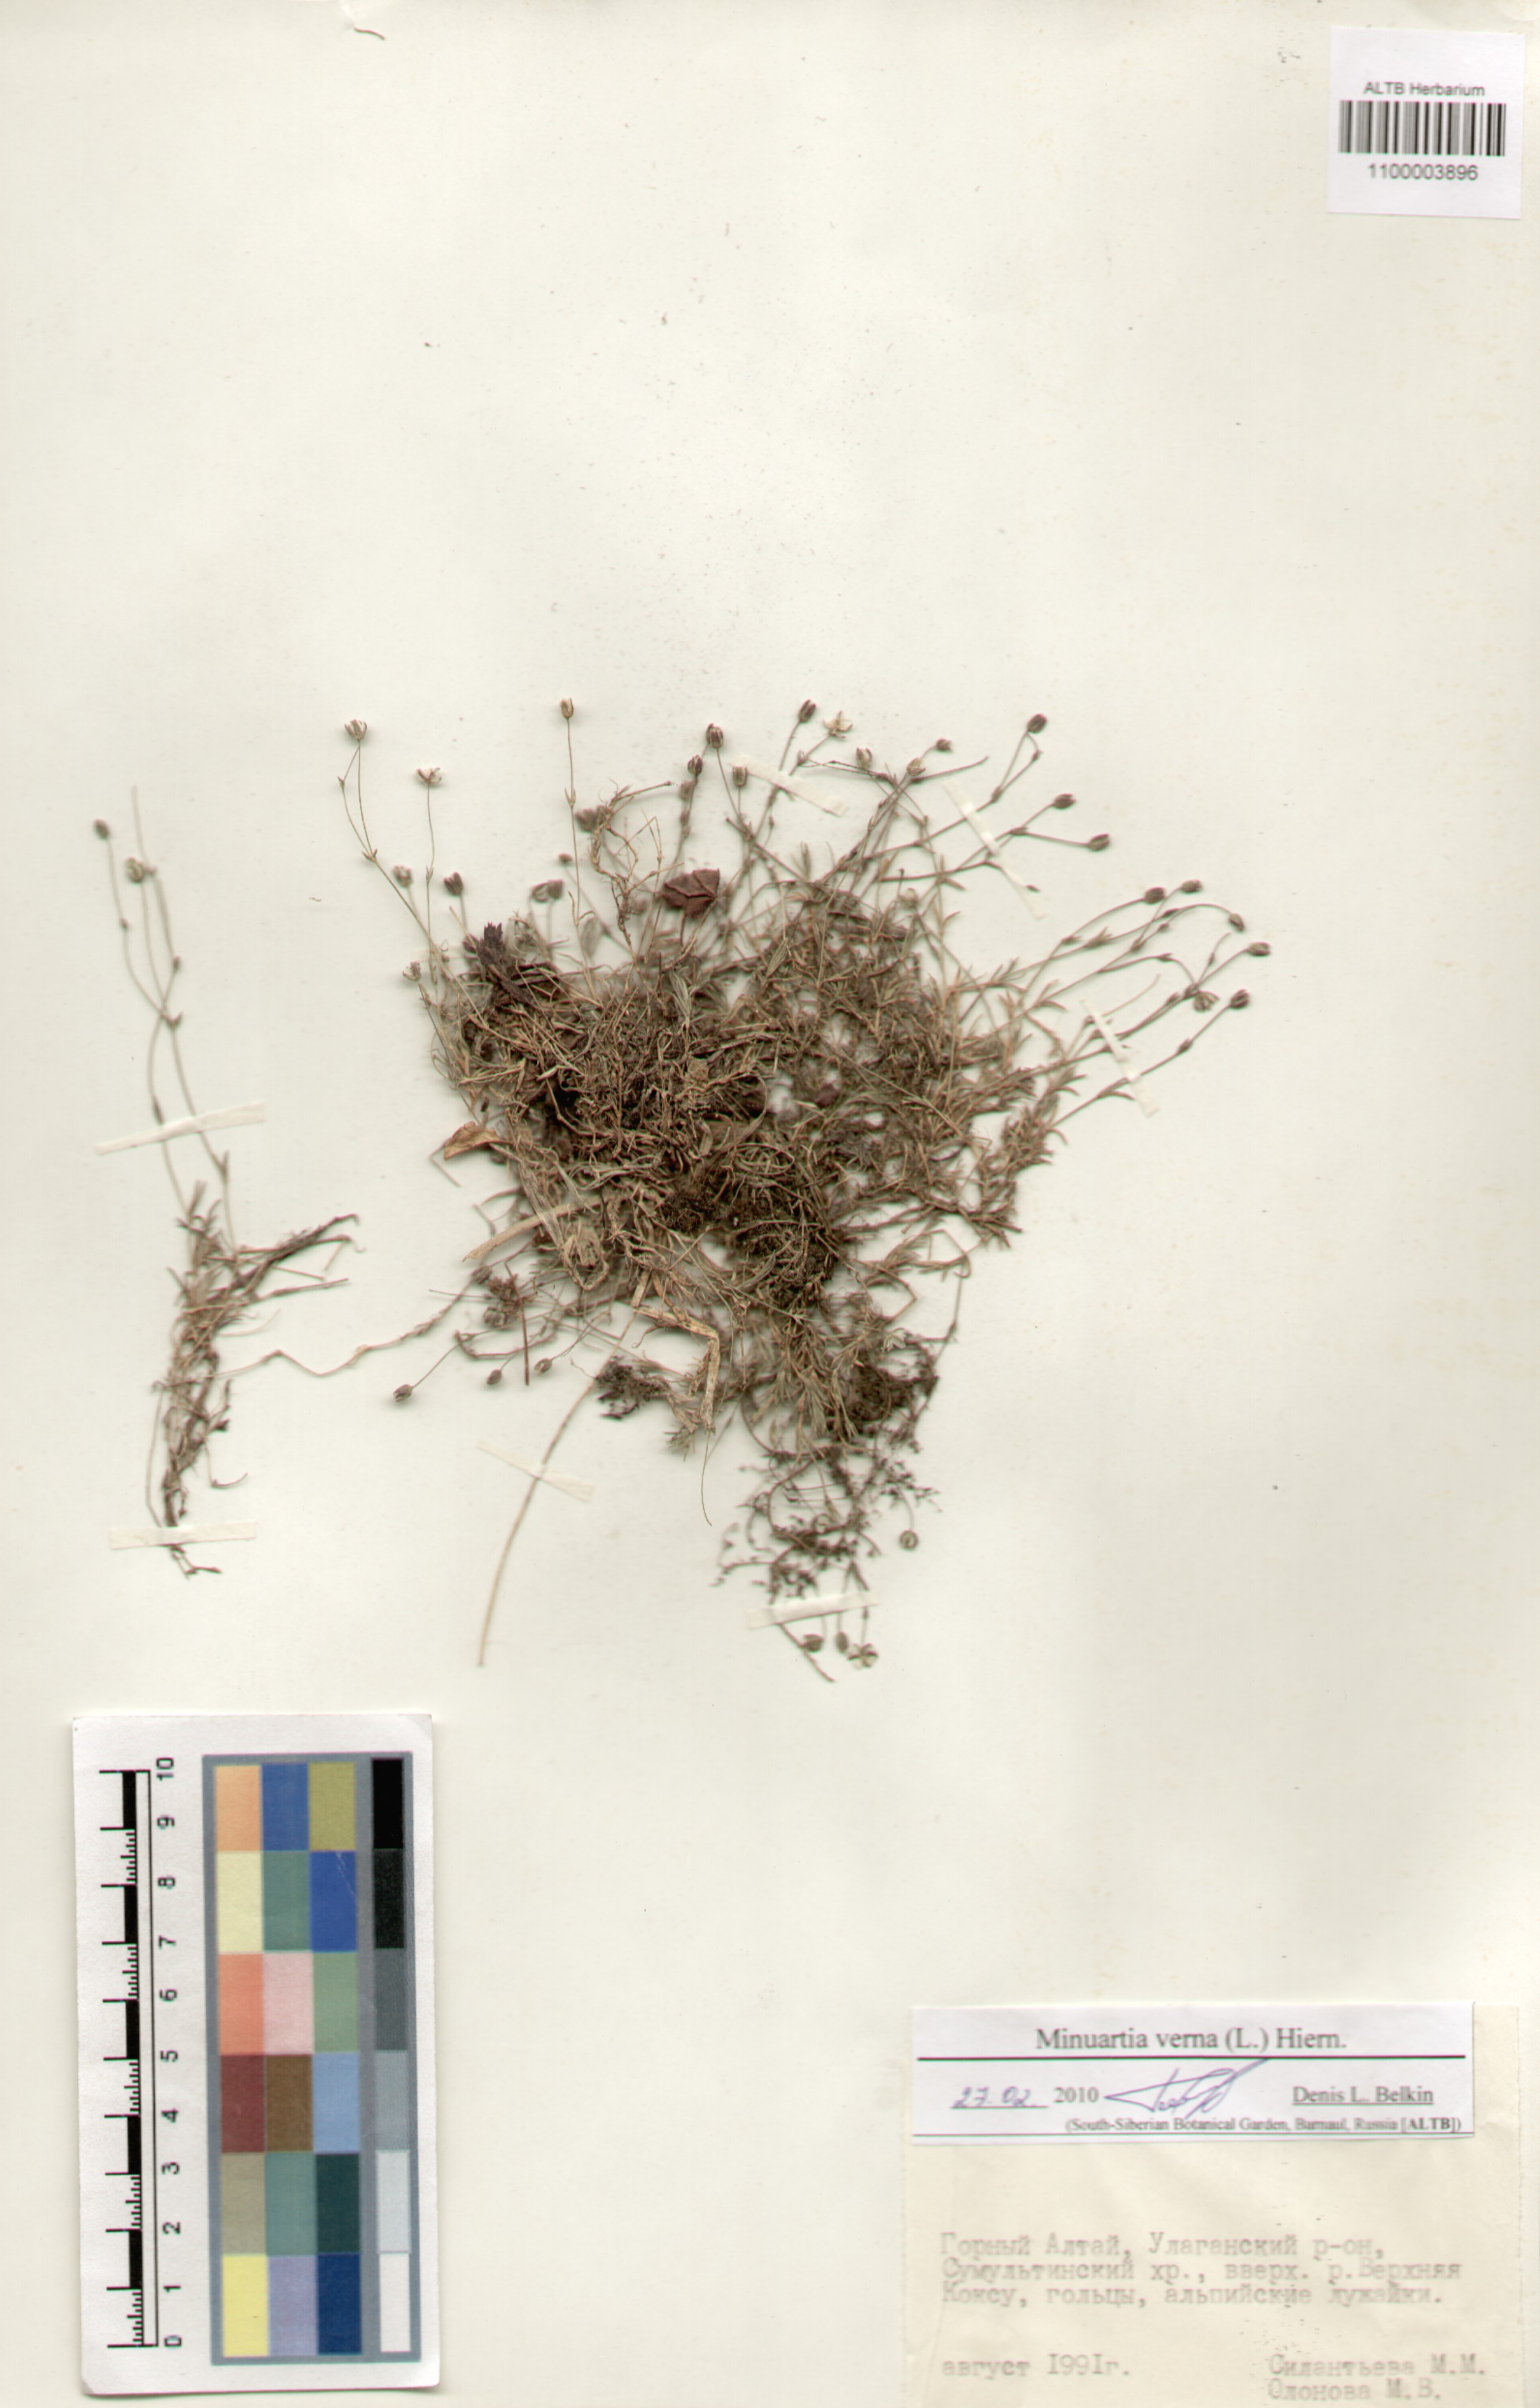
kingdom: Plantae
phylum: Tracheophyta
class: Magnoliopsida
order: Caryophyllales
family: Caryophyllaceae
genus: Sabulina
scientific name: Sabulina verna
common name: Spring sandwort
